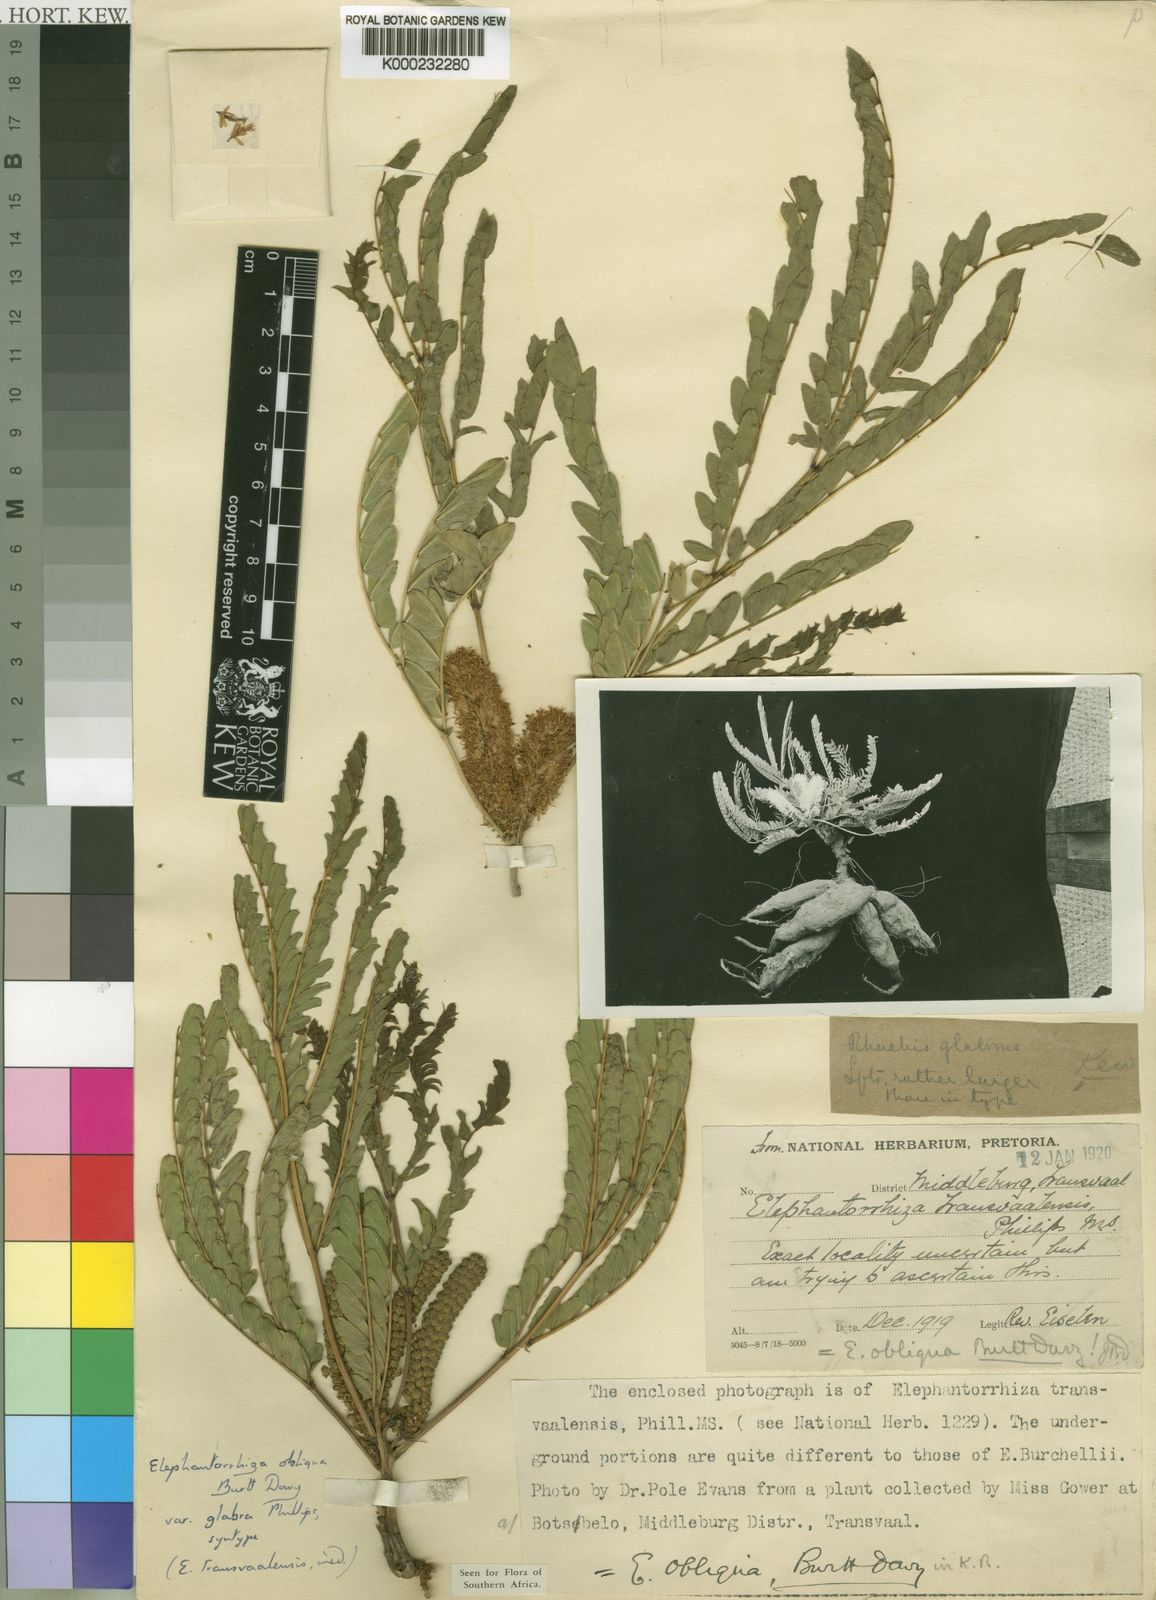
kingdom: Plantae
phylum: Tracheophyta
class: Magnoliopsida
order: Fabales
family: Fabaceae
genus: Elephantorrhiza
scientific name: Elephantorrhiza obliqua
